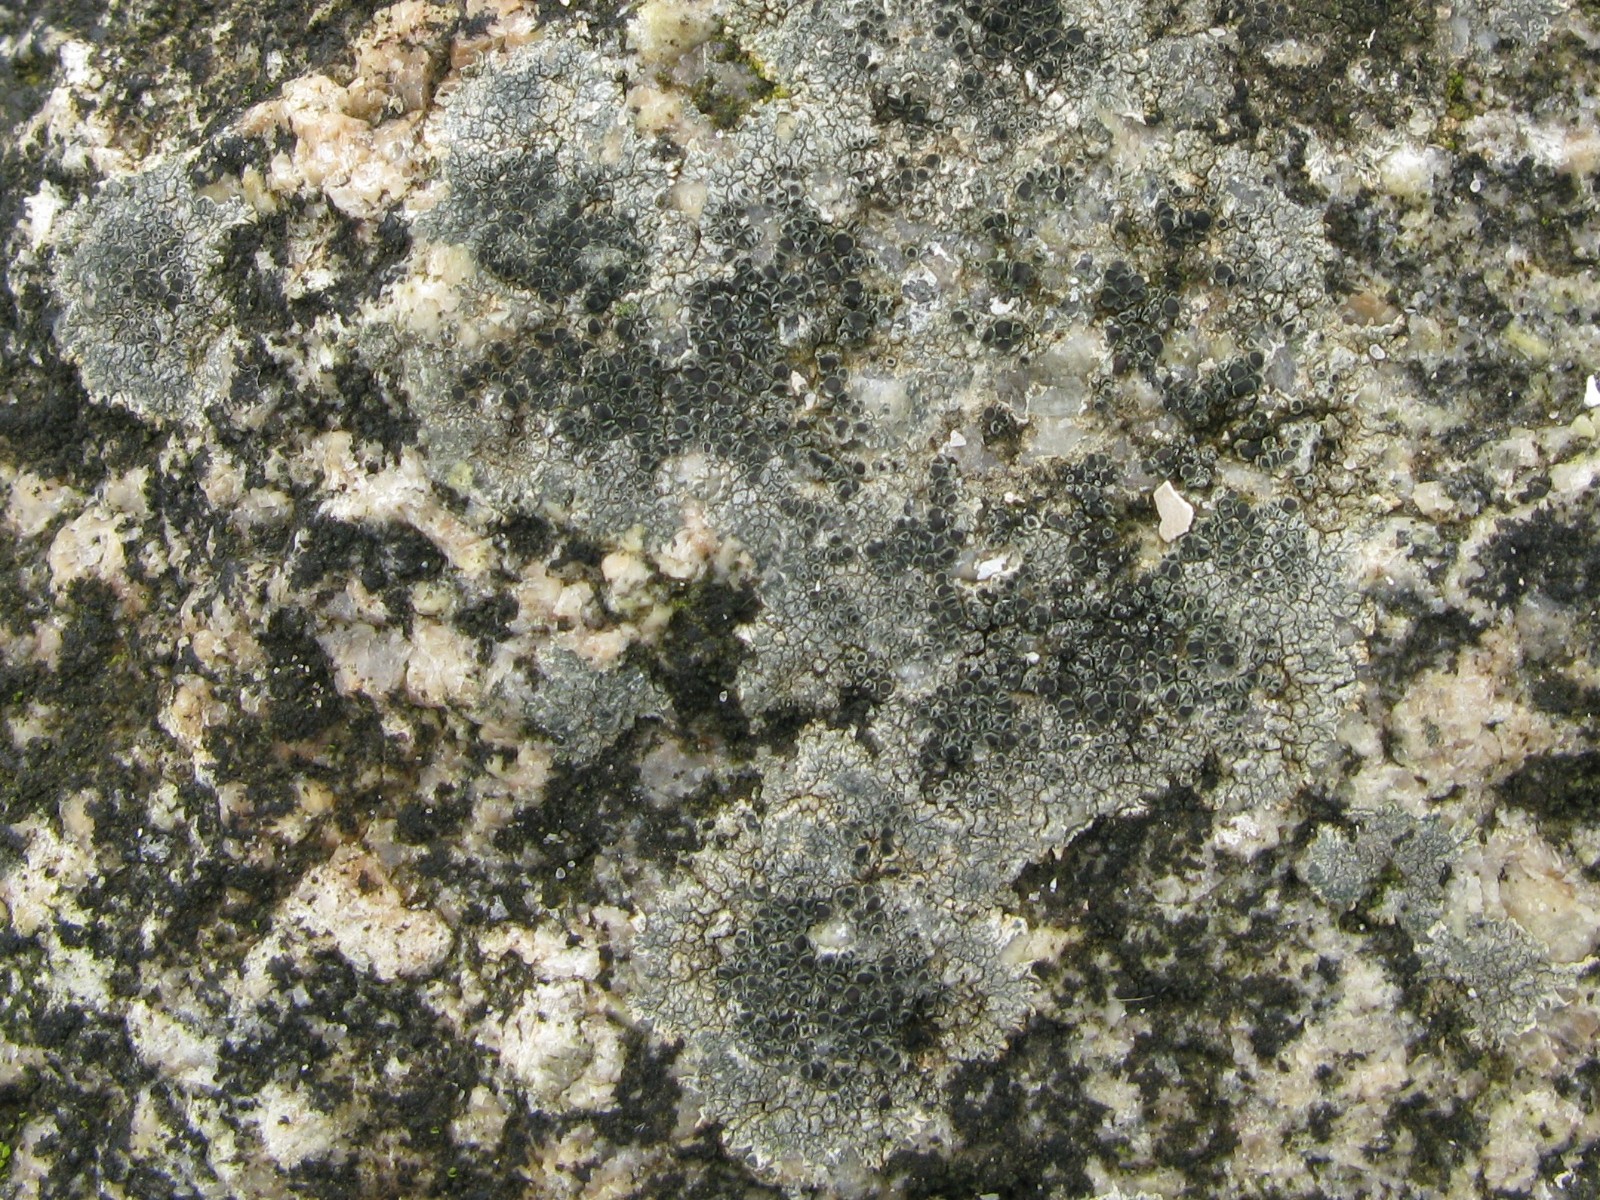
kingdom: Fungi
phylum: Ascomycota
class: Lecanoromycetes
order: Lecanorales
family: Lecanoraceae
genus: Lecanora
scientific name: Lecanora helicopis
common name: salt-kantskivelav
